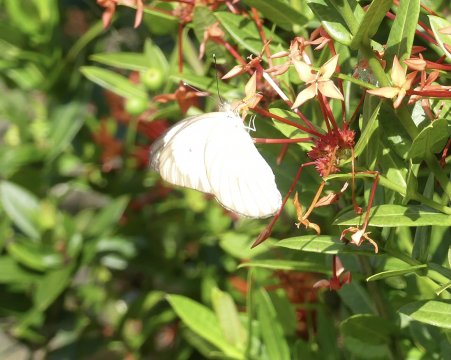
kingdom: Animalia
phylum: Arthropoda
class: Insecta
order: Lepidoptera
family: Pieridae
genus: Ascia
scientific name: Ascia monuste
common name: Great Southern White
